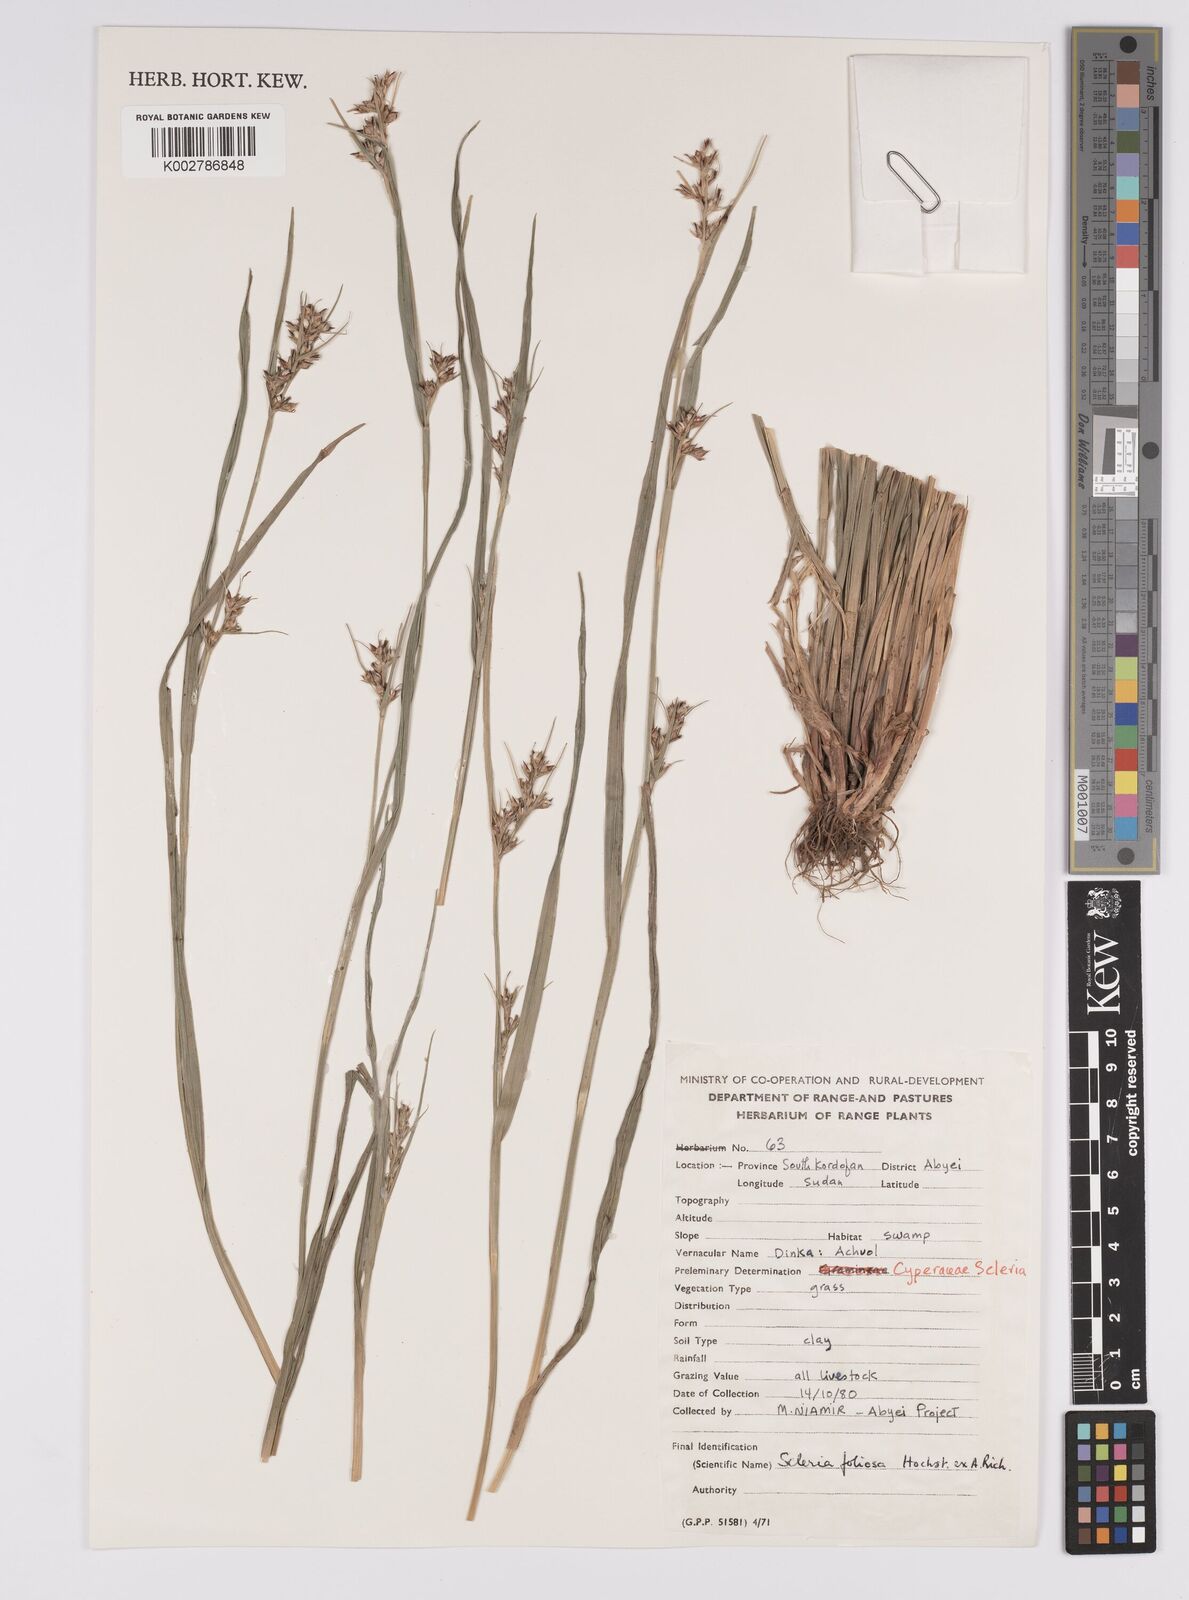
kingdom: Plantae
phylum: Tracheophyta
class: Liliopsida
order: Poales
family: Cyperaceae
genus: Scleria
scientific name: Scleria foliosa
